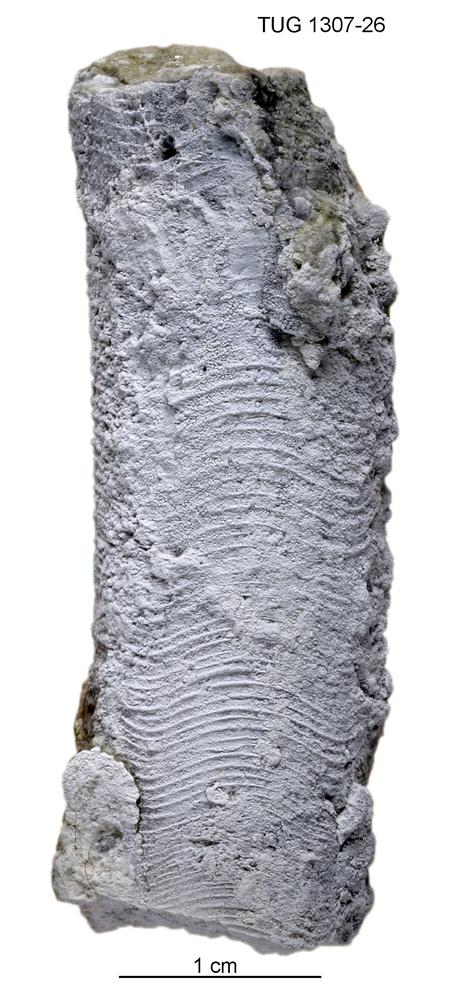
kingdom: Animalia
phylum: Mollusca
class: Cephalopoda
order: Orthocerida
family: Proteoceratidae
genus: Isorthoceras
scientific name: Isorthoceras maris
